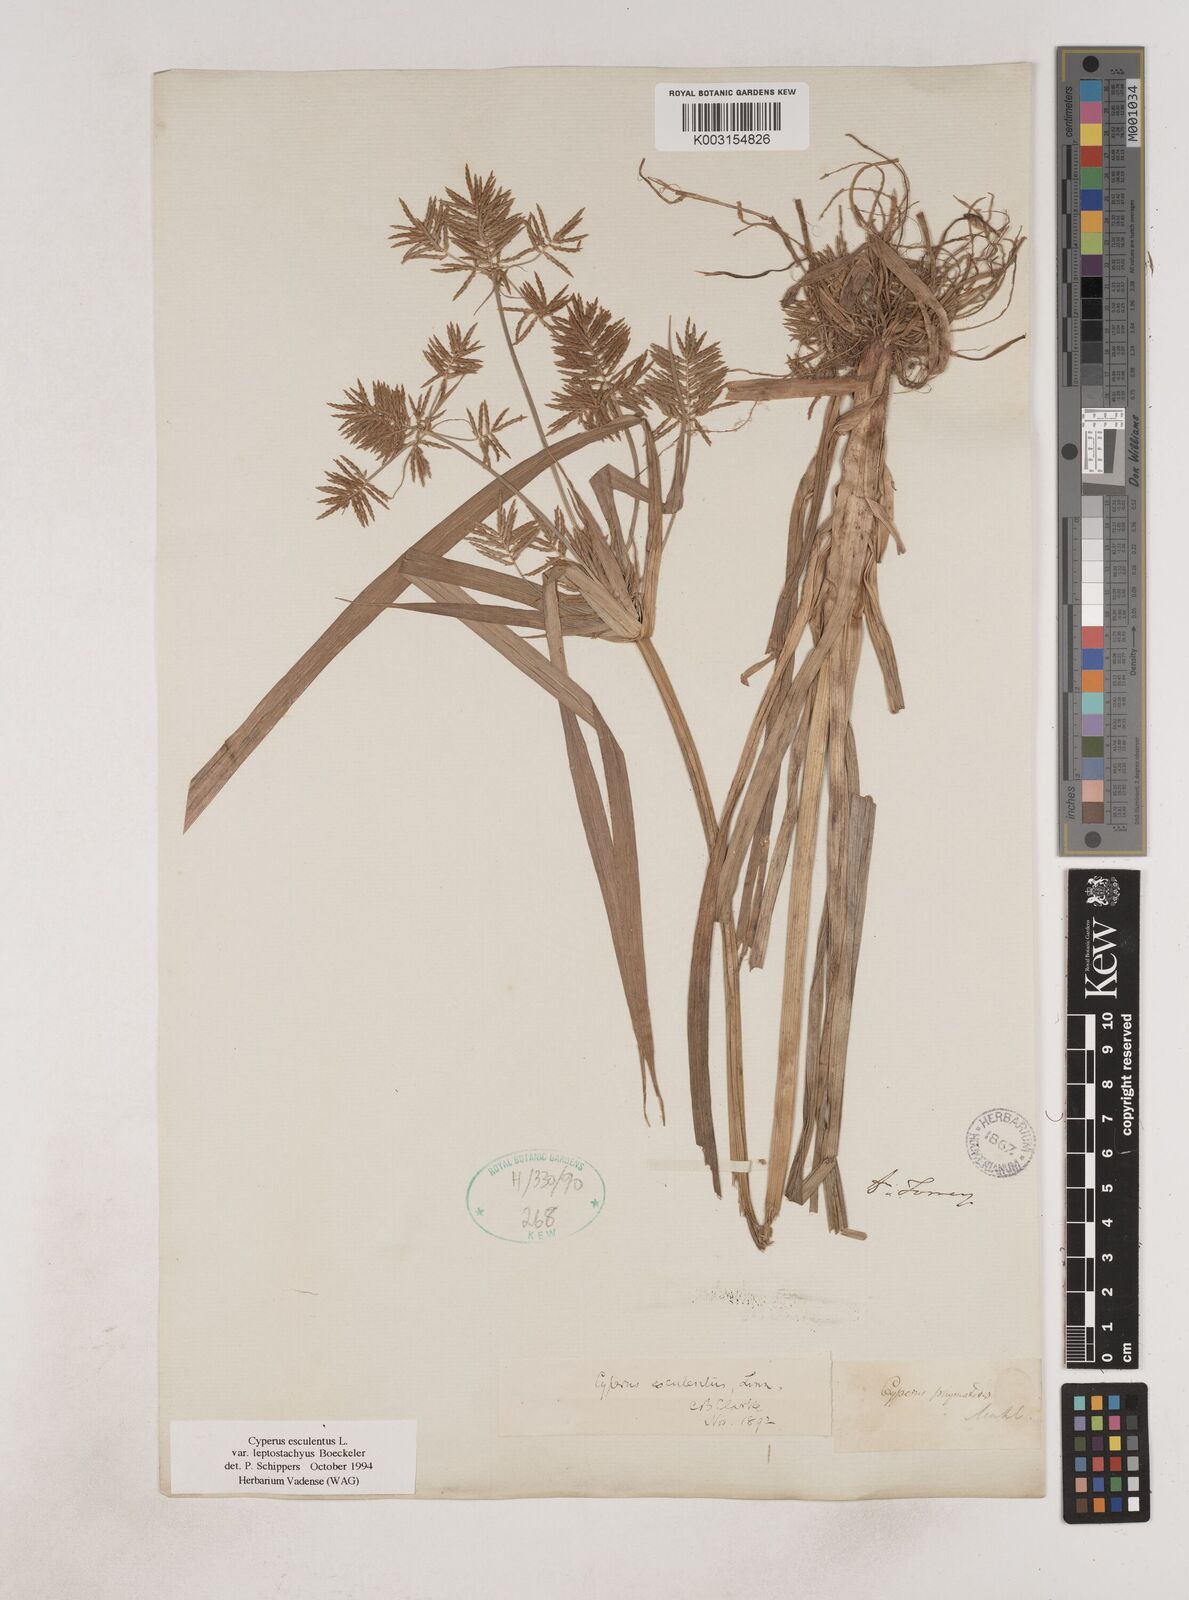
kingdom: Plantae
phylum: Tracheophyta
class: Liliopsida
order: Poales
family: Cyperaceae
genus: Cyperus
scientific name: Cyperus esculentus
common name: Yellow nutsedge
